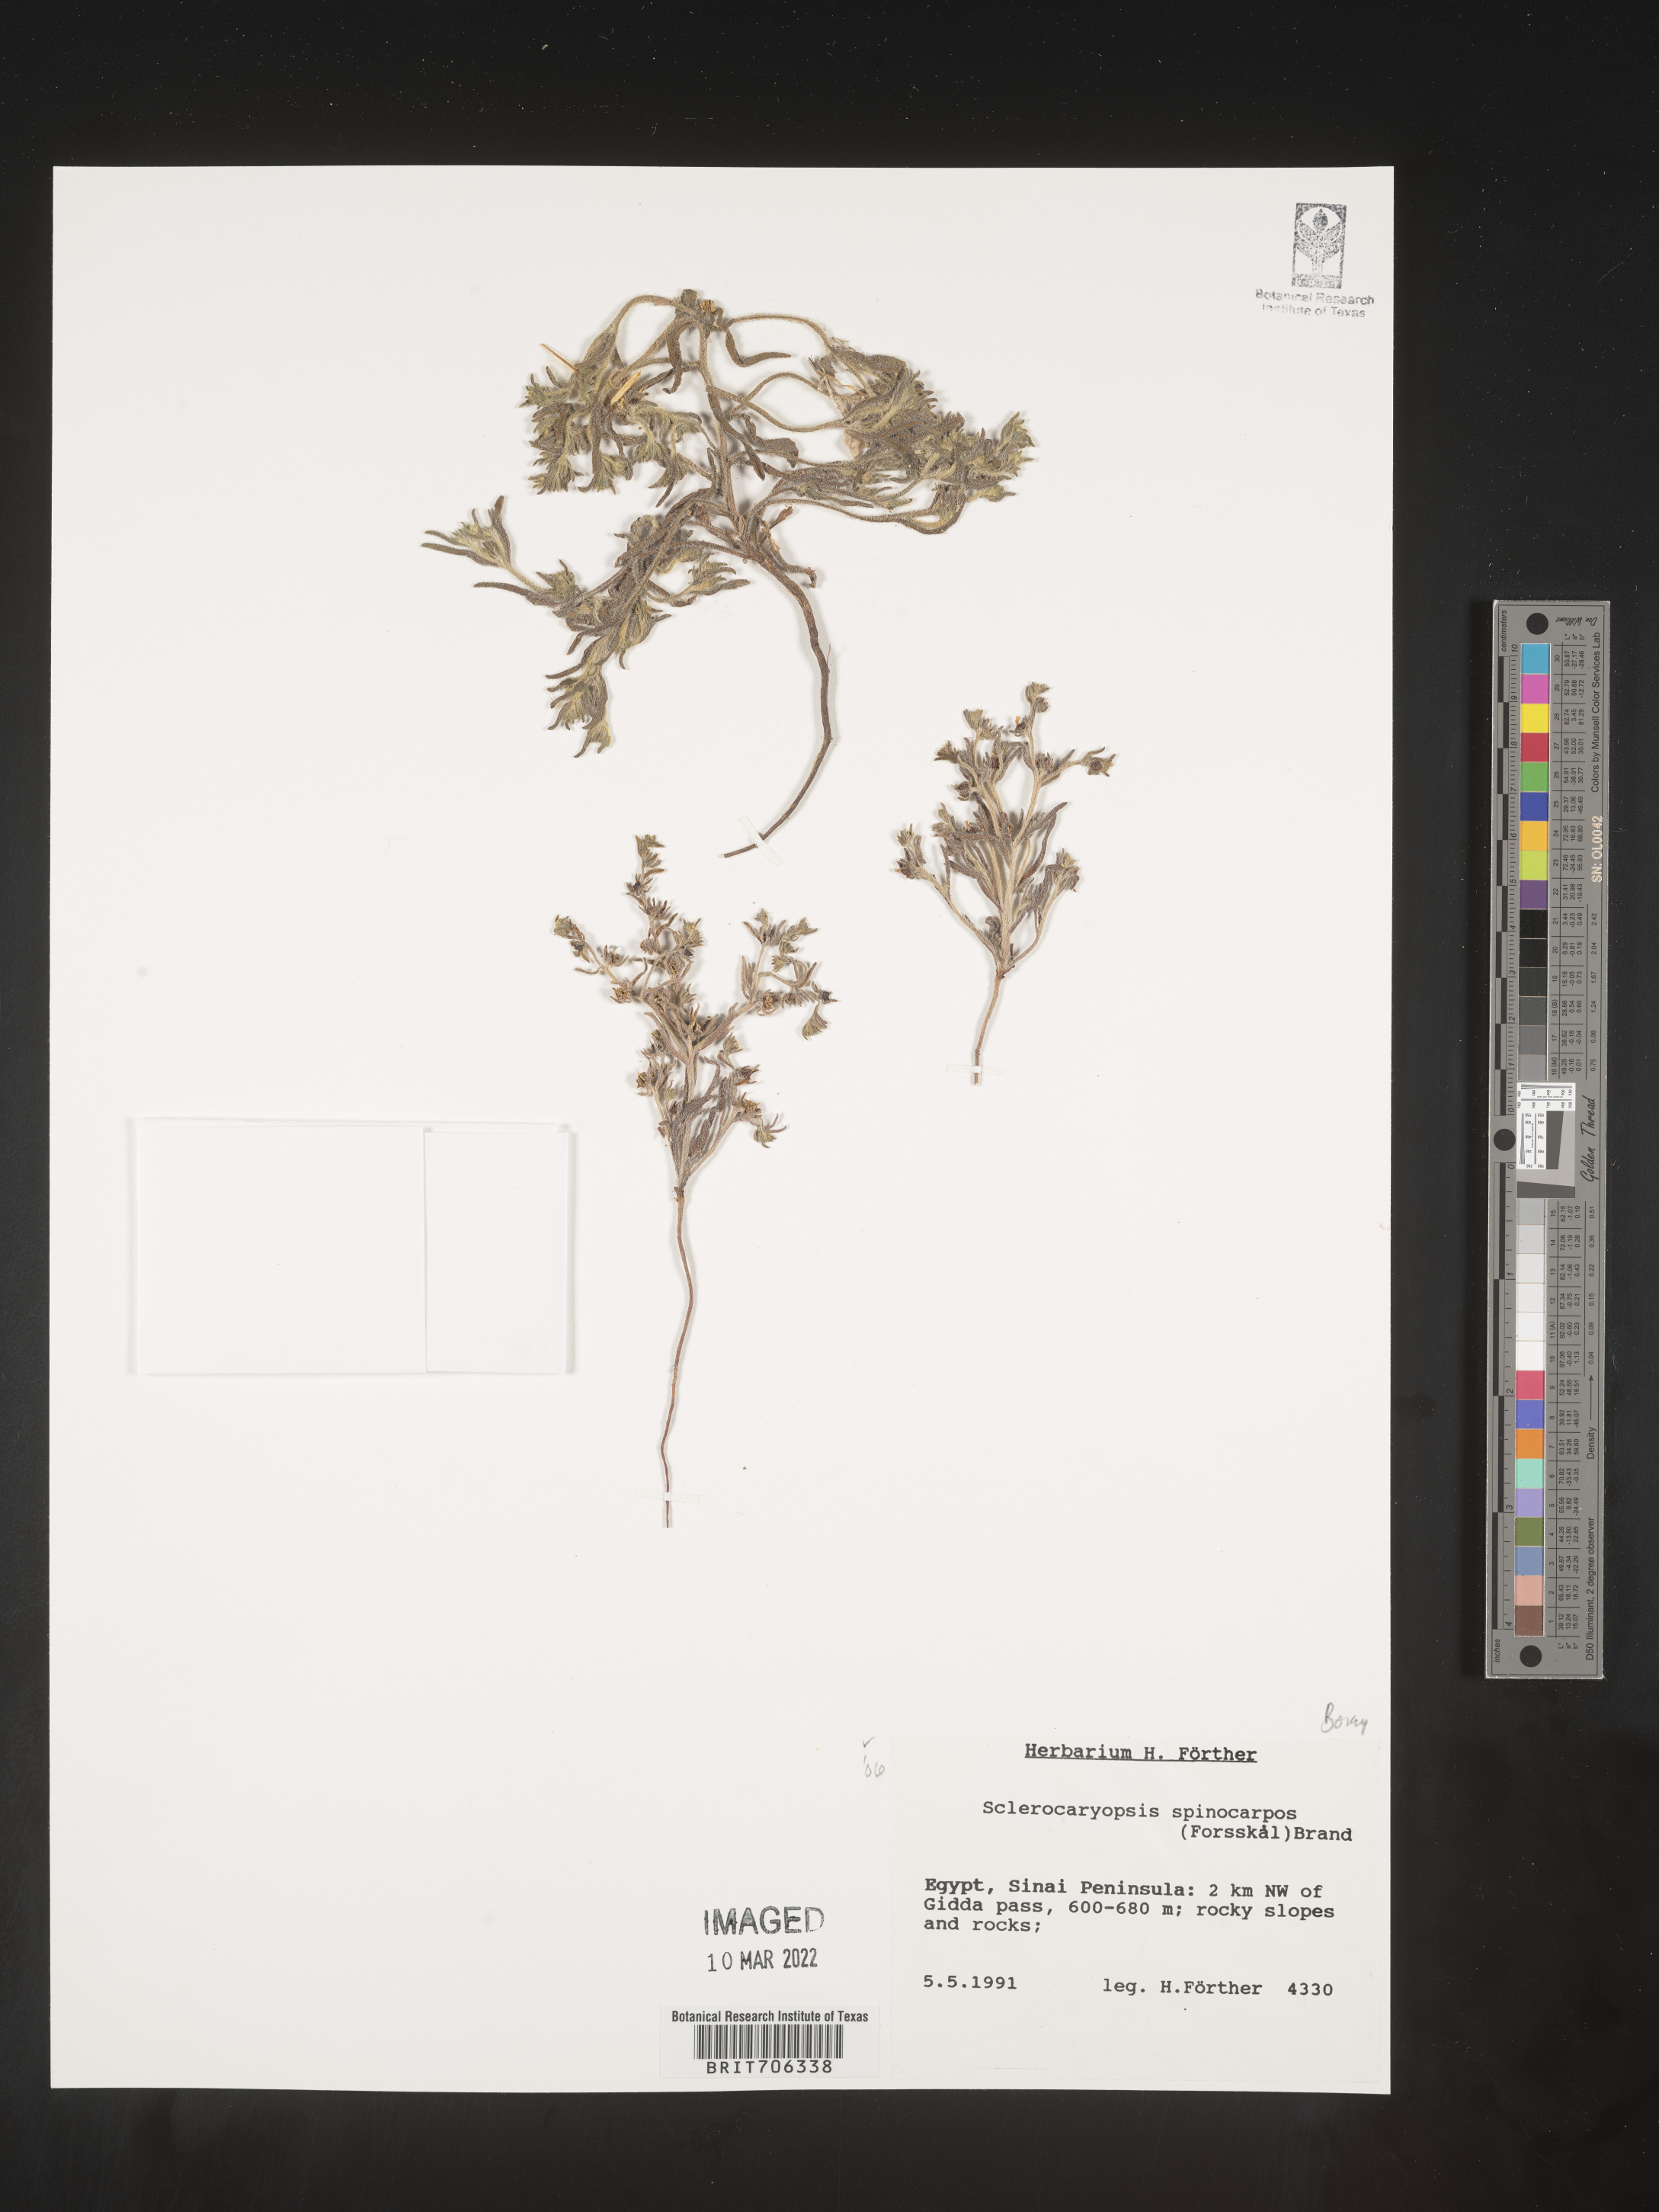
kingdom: Plantae
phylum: Tracheophyta
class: Magnoliopsida
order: Boraginales
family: Boraginaceae
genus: Lappula
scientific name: Lappula
